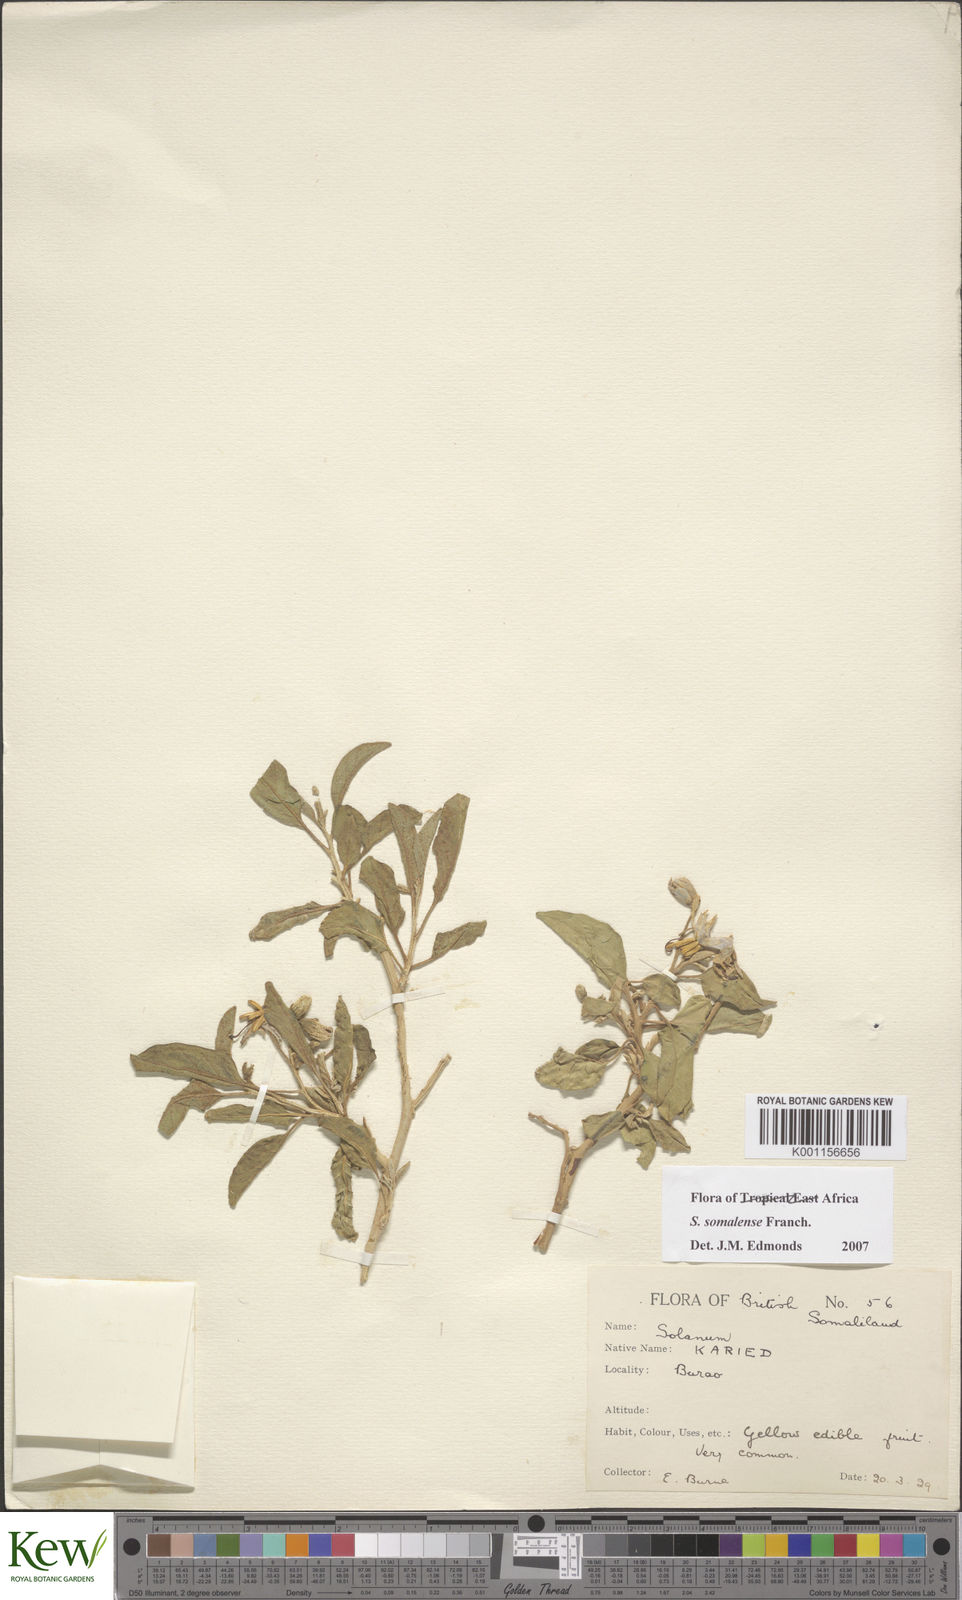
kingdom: Plantae
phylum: Tracheophyta
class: Magnoliopsida
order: Solanales
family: Solanaceae
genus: Solanum
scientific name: Solanum somalense
